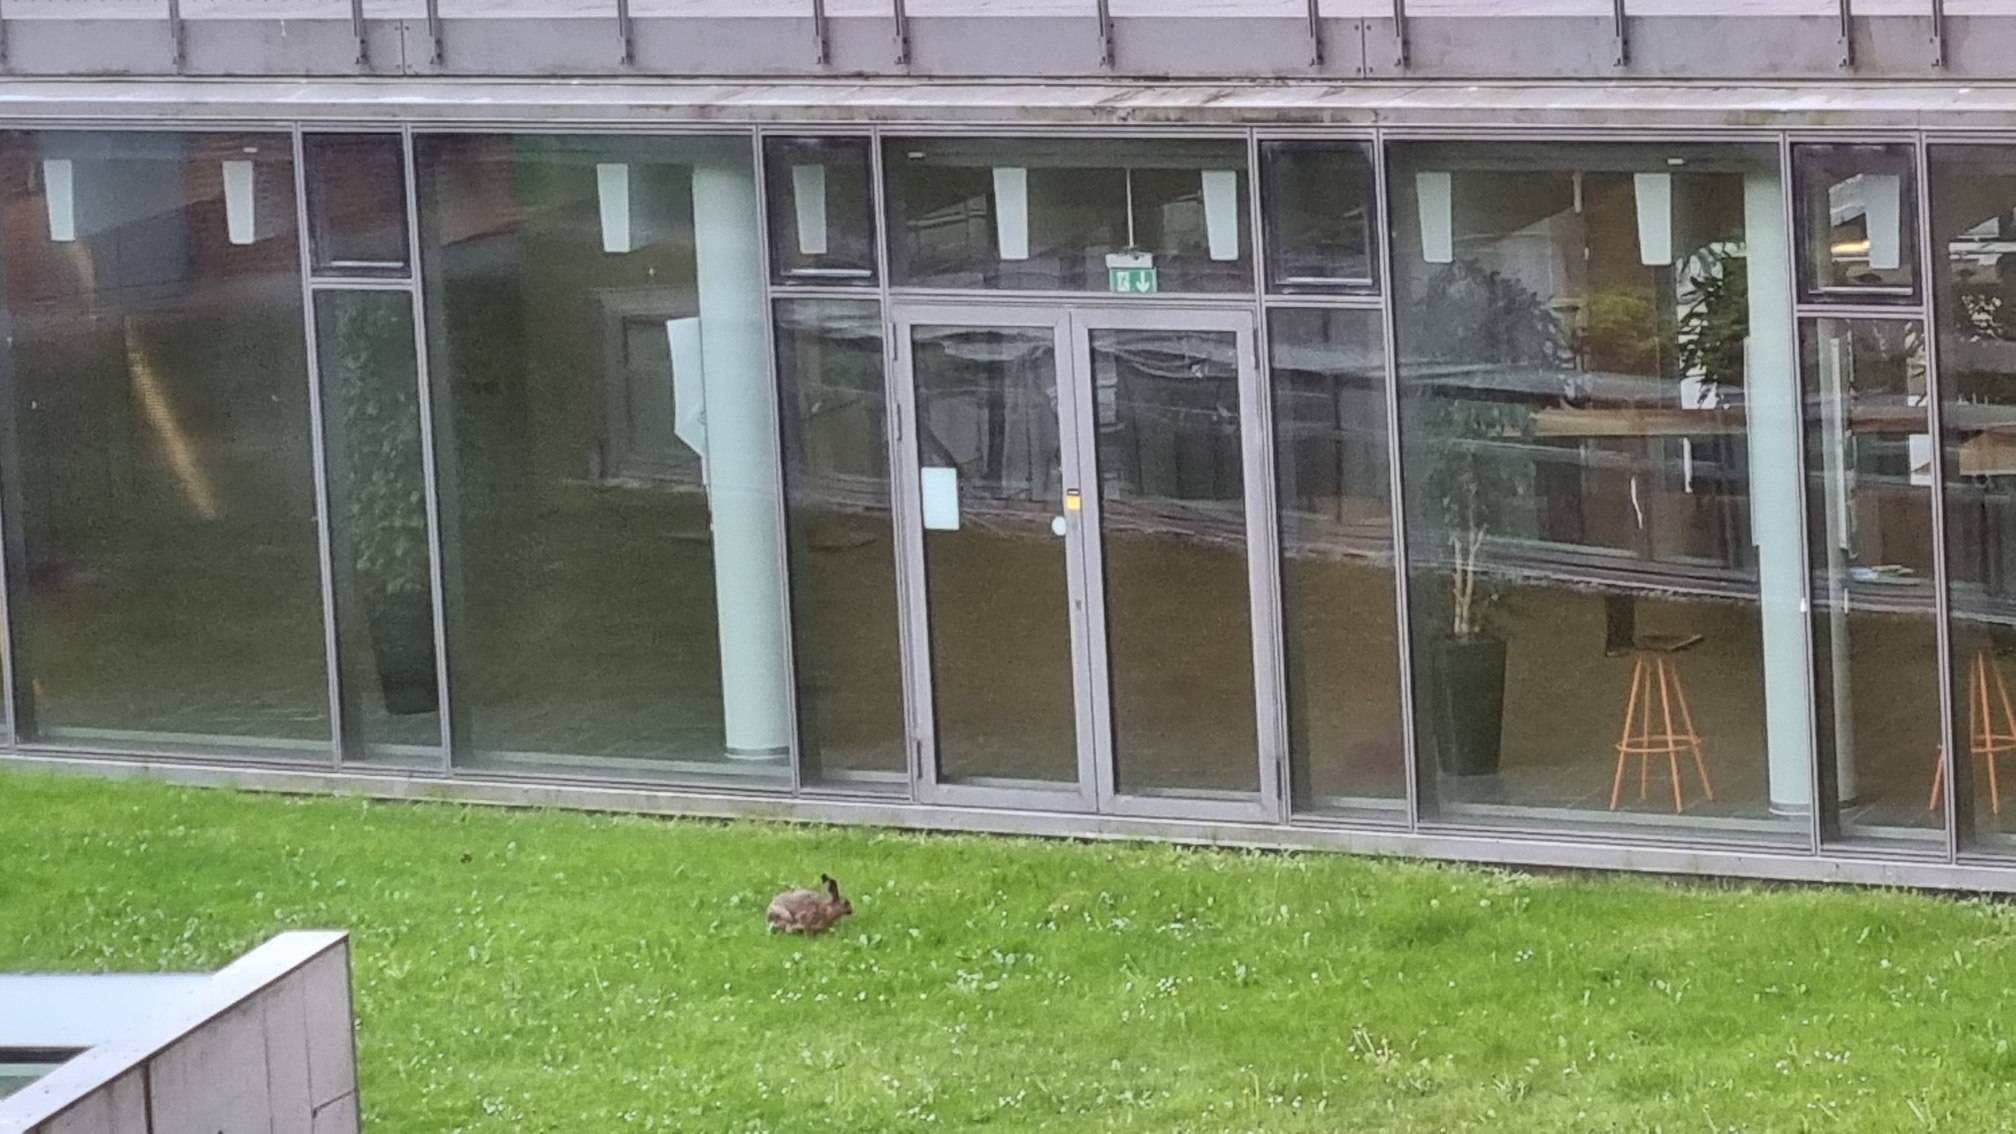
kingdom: Animalia
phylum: Chordata
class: Mammalia
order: Lagomorpha
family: Leporidae
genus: Lepus
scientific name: Lepus europaeus
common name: Hare
